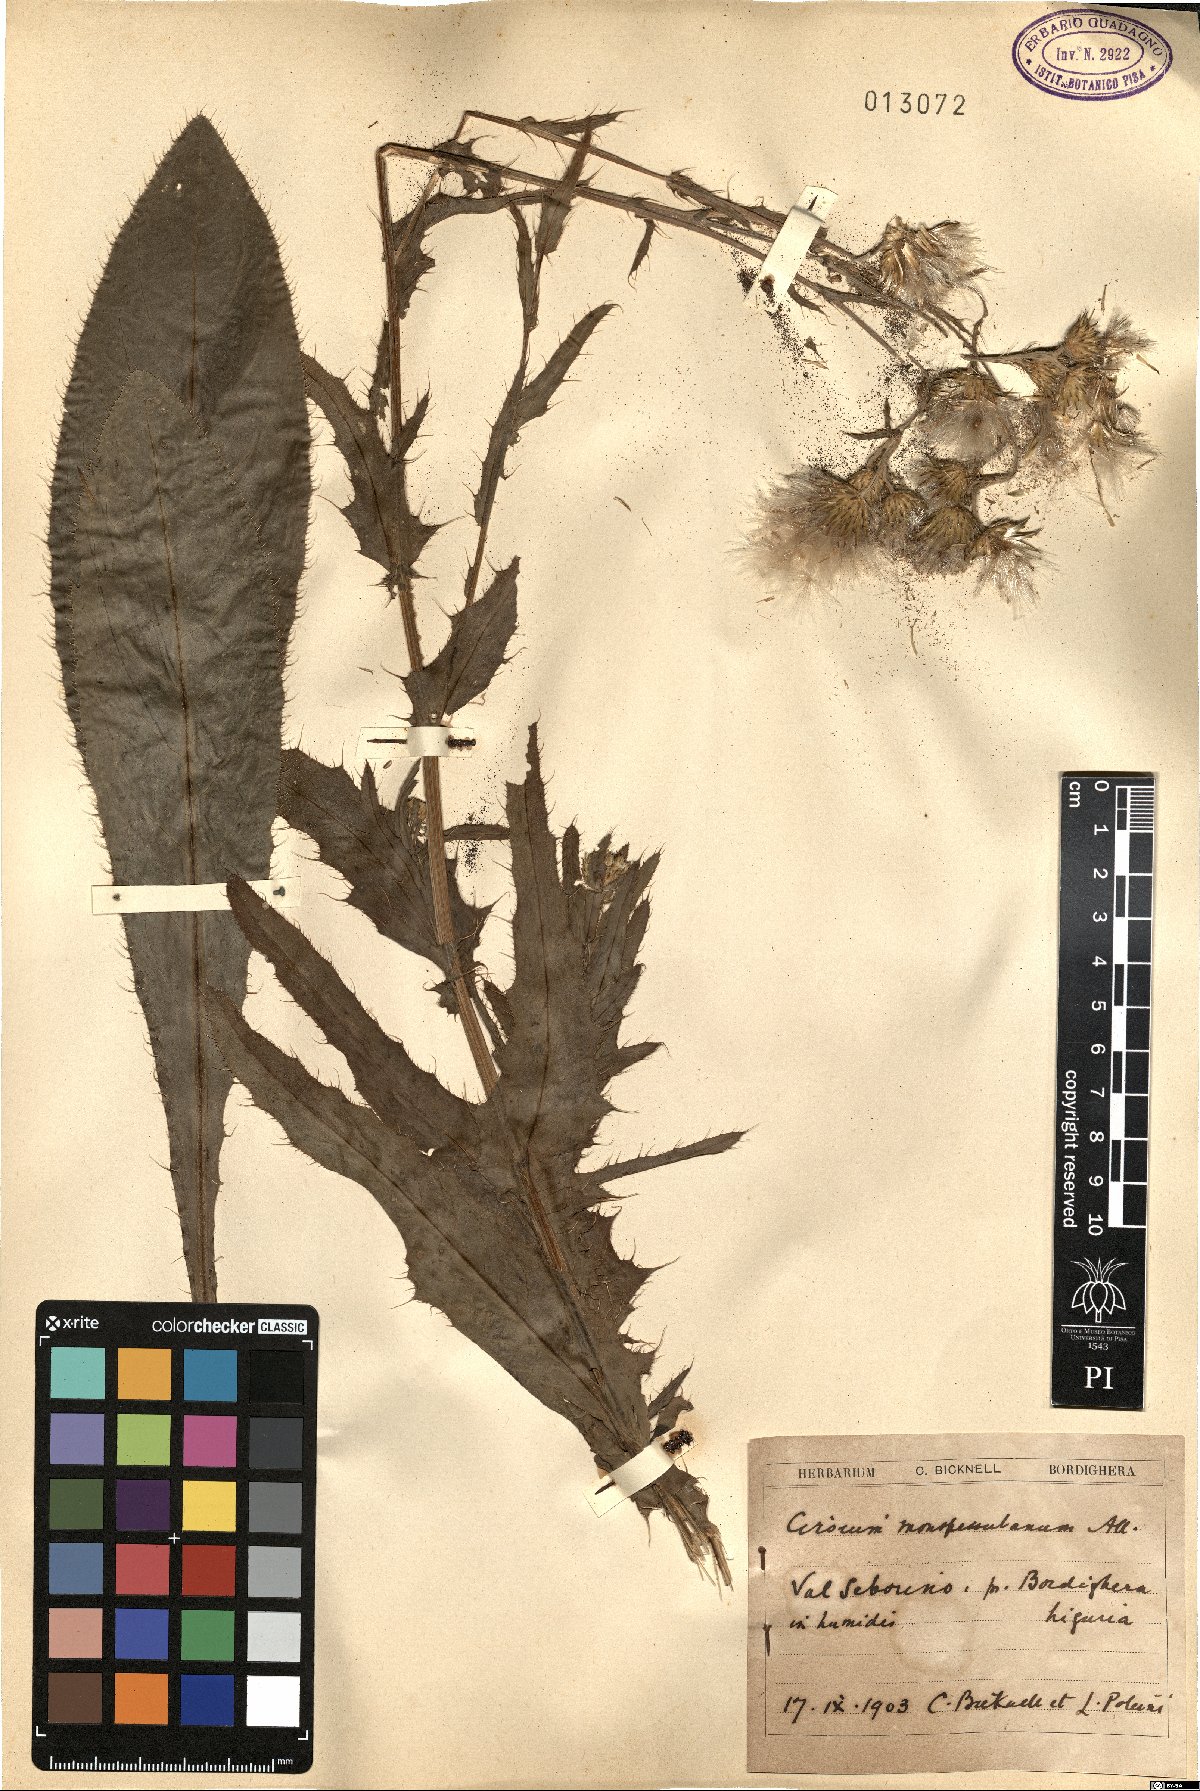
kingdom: Plantae
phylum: Tracheophyta
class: Magnoliopsida
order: Asterales
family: Asteraceae
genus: Cirsium
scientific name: Cirsium monspessulanum
